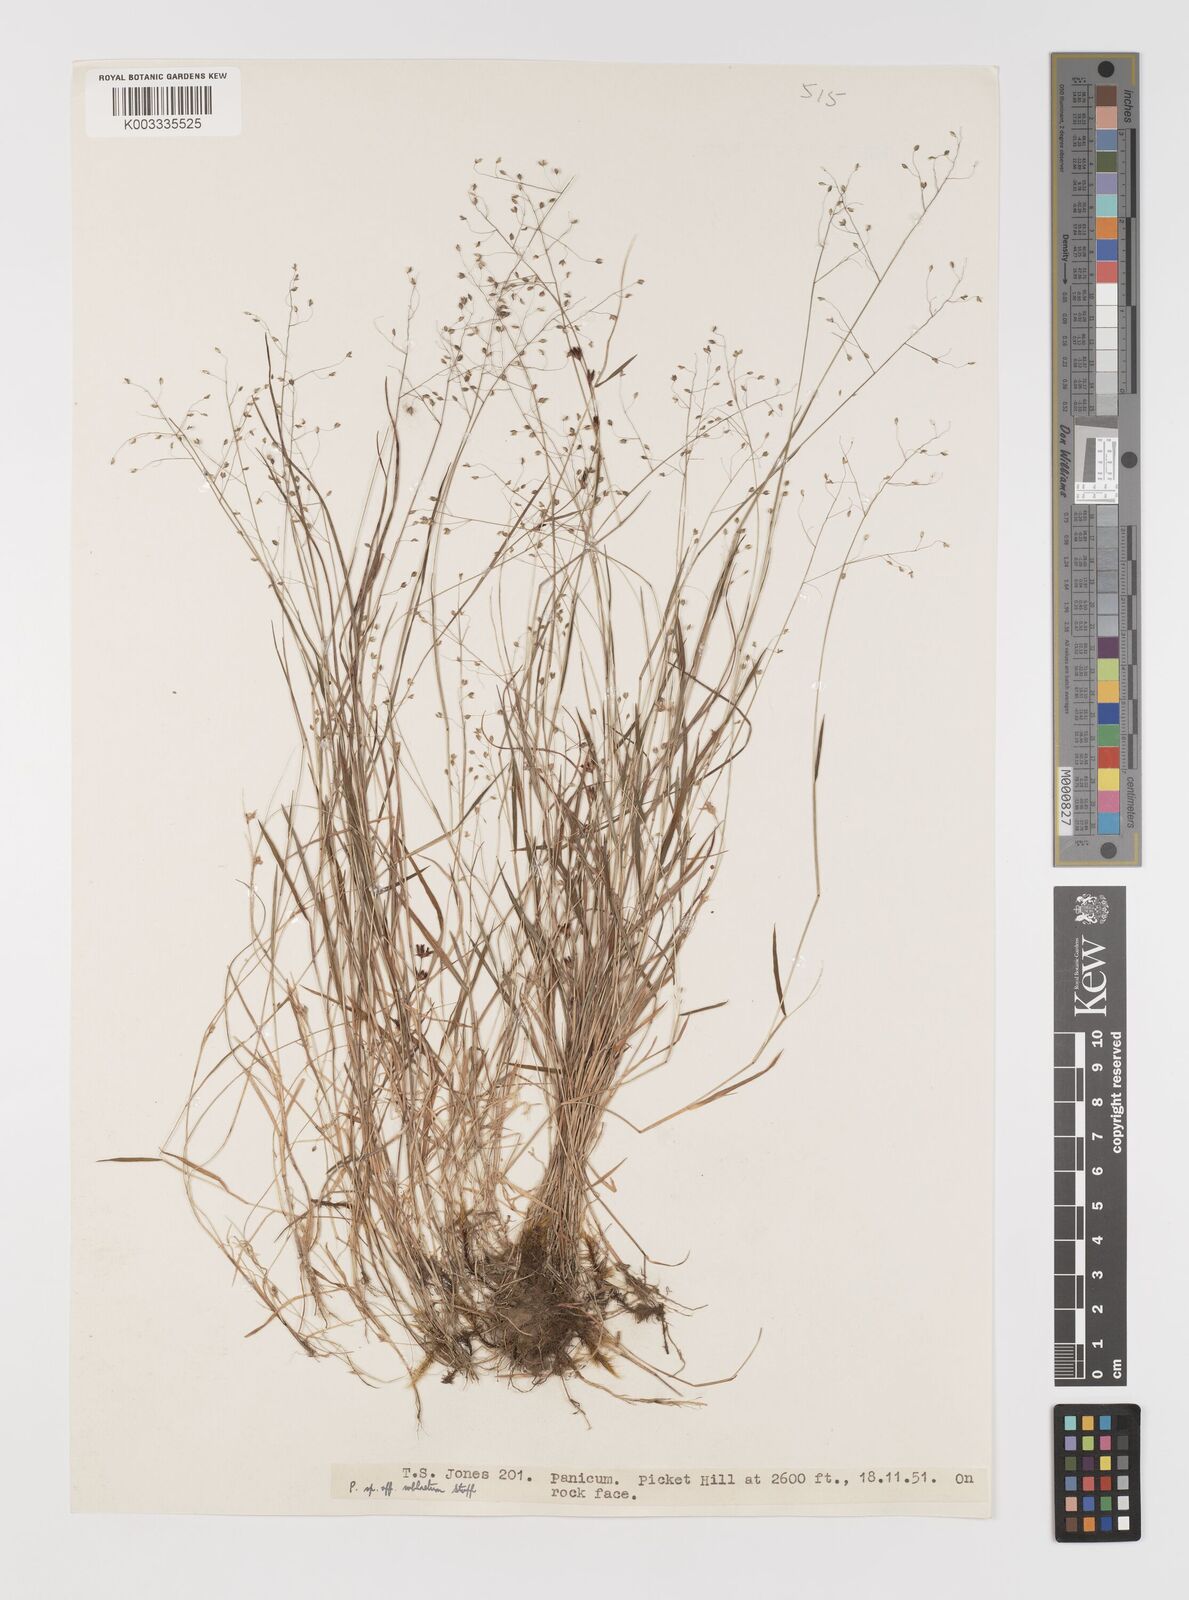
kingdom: Plantae
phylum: Tracheophyta
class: Liliopsida
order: Poales
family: Poaceae
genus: Trichanthecium
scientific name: Trichanthecium tenellum
